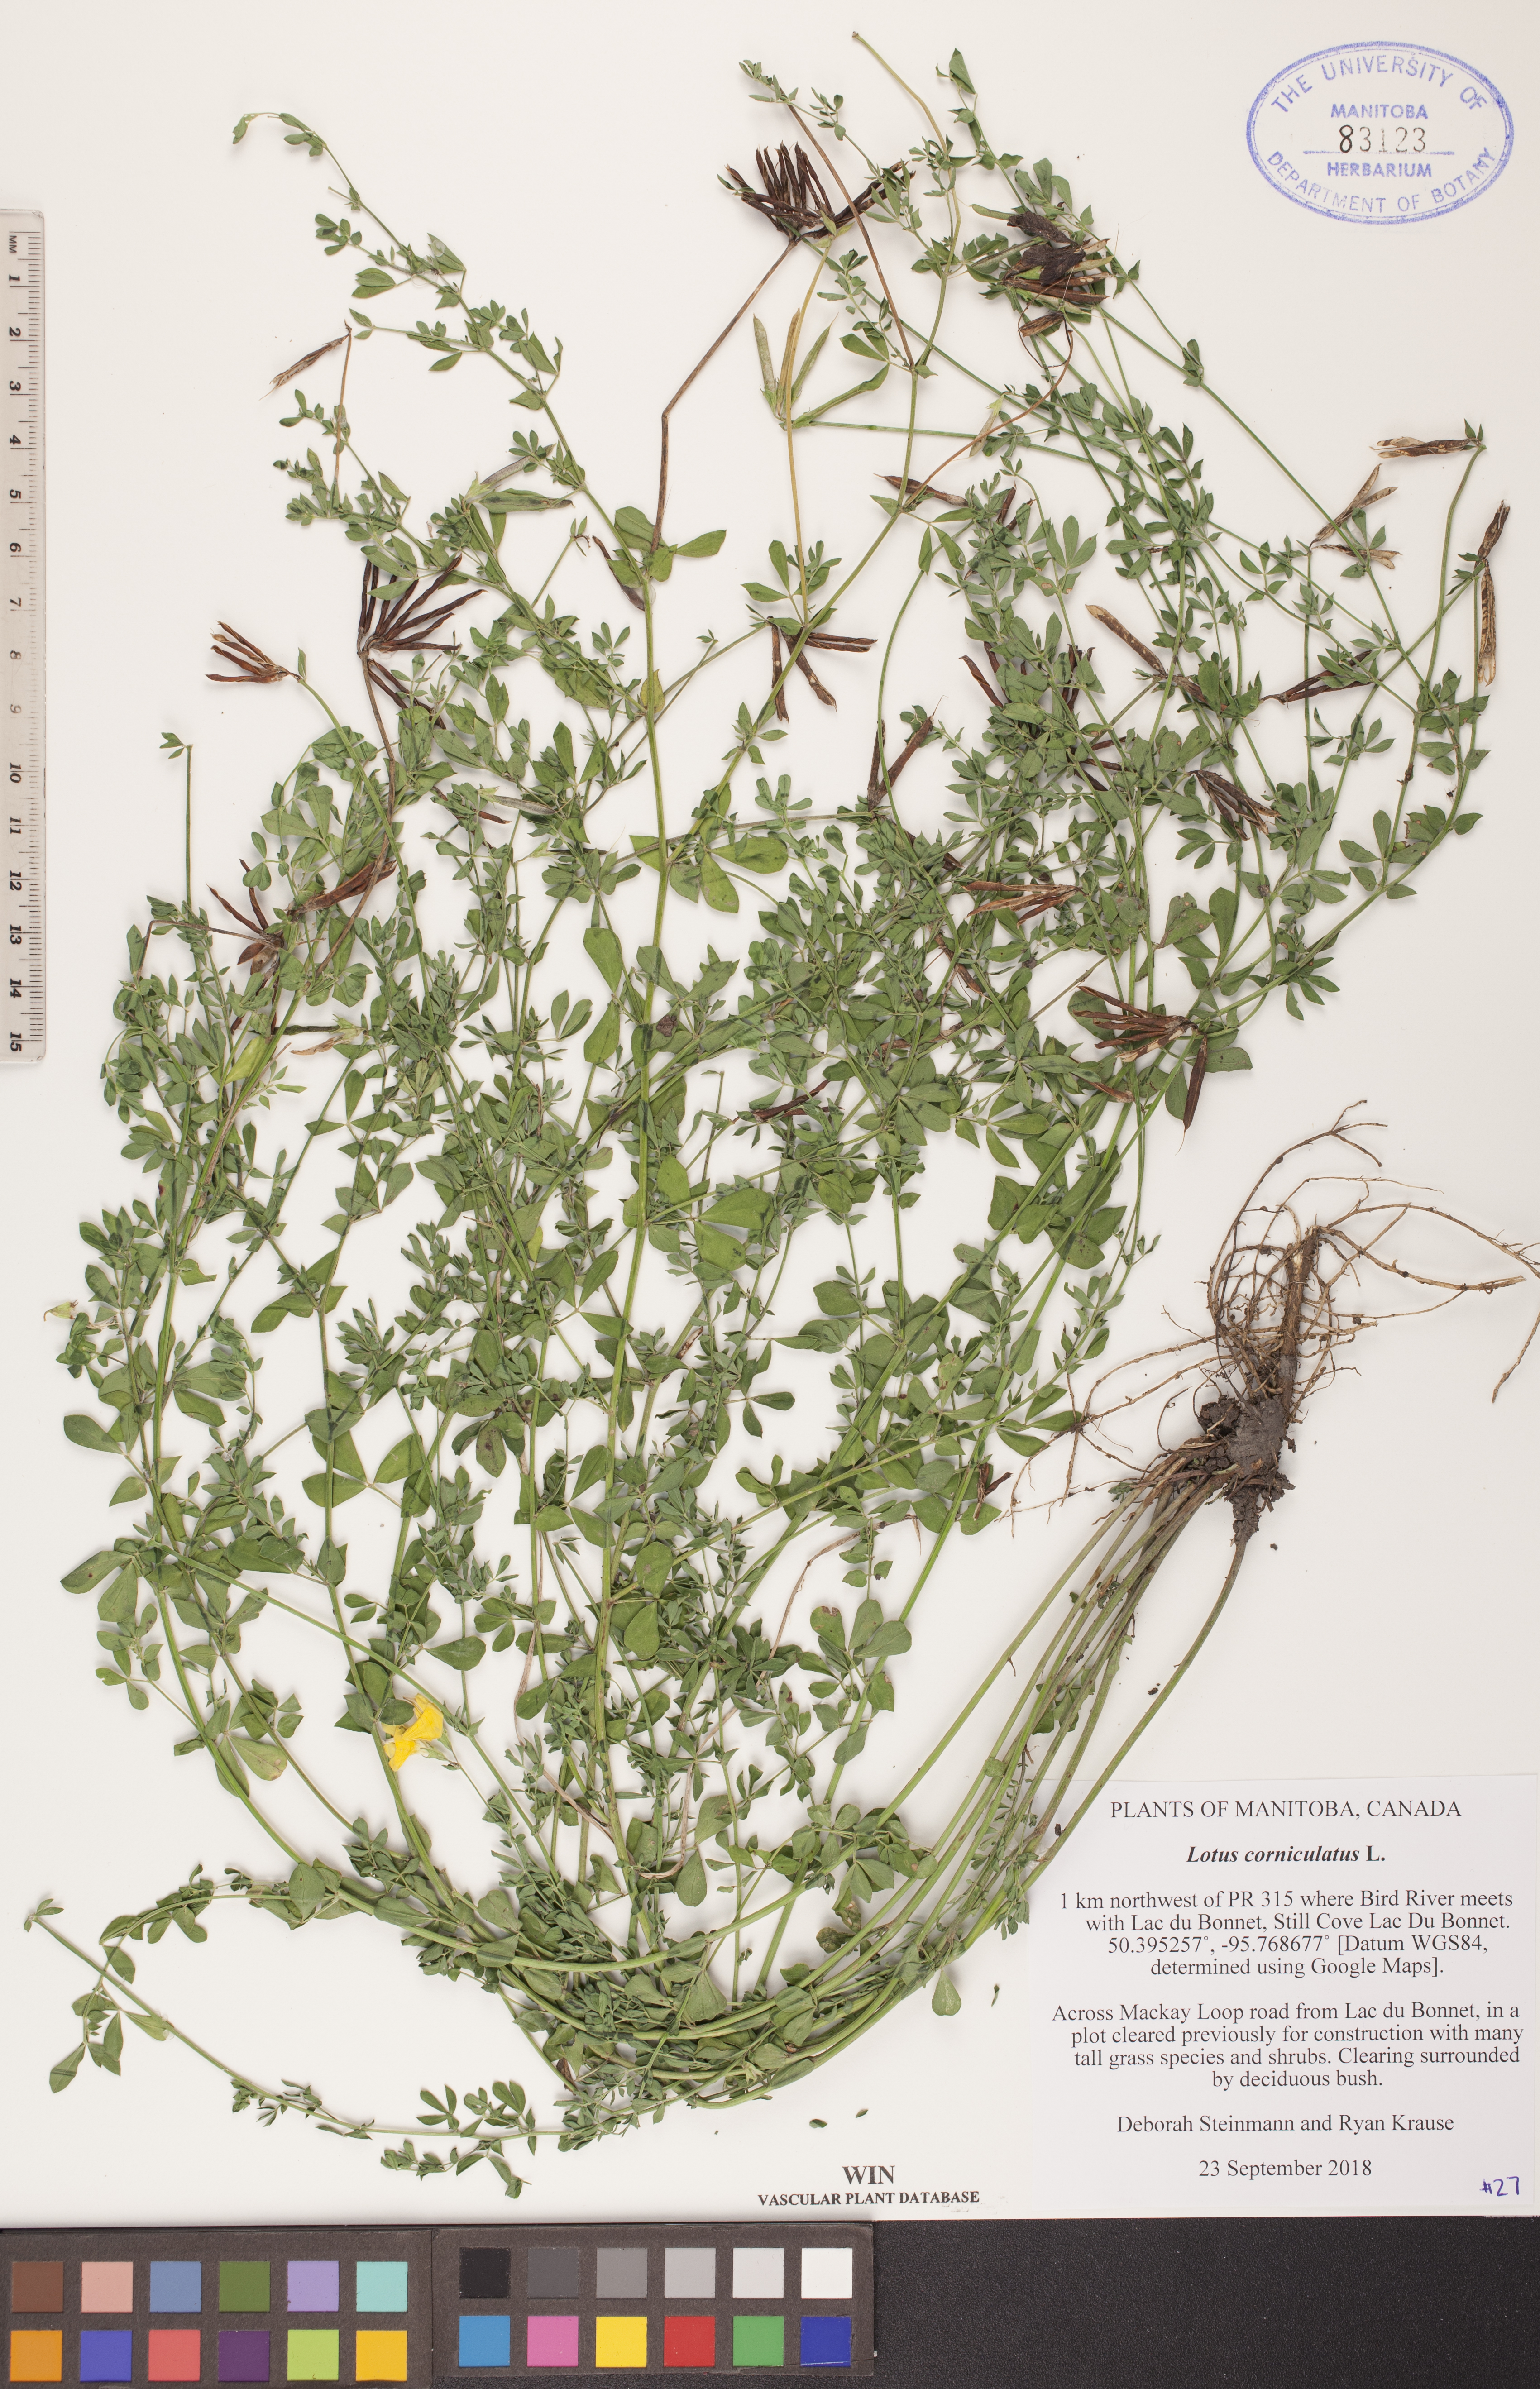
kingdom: Plantae
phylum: Tracheophyta
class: Magnoliopsida
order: Fabales
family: Fabaceae
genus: Lotus
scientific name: Lotus corniculatus
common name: Common bird's-foot-trefoil
